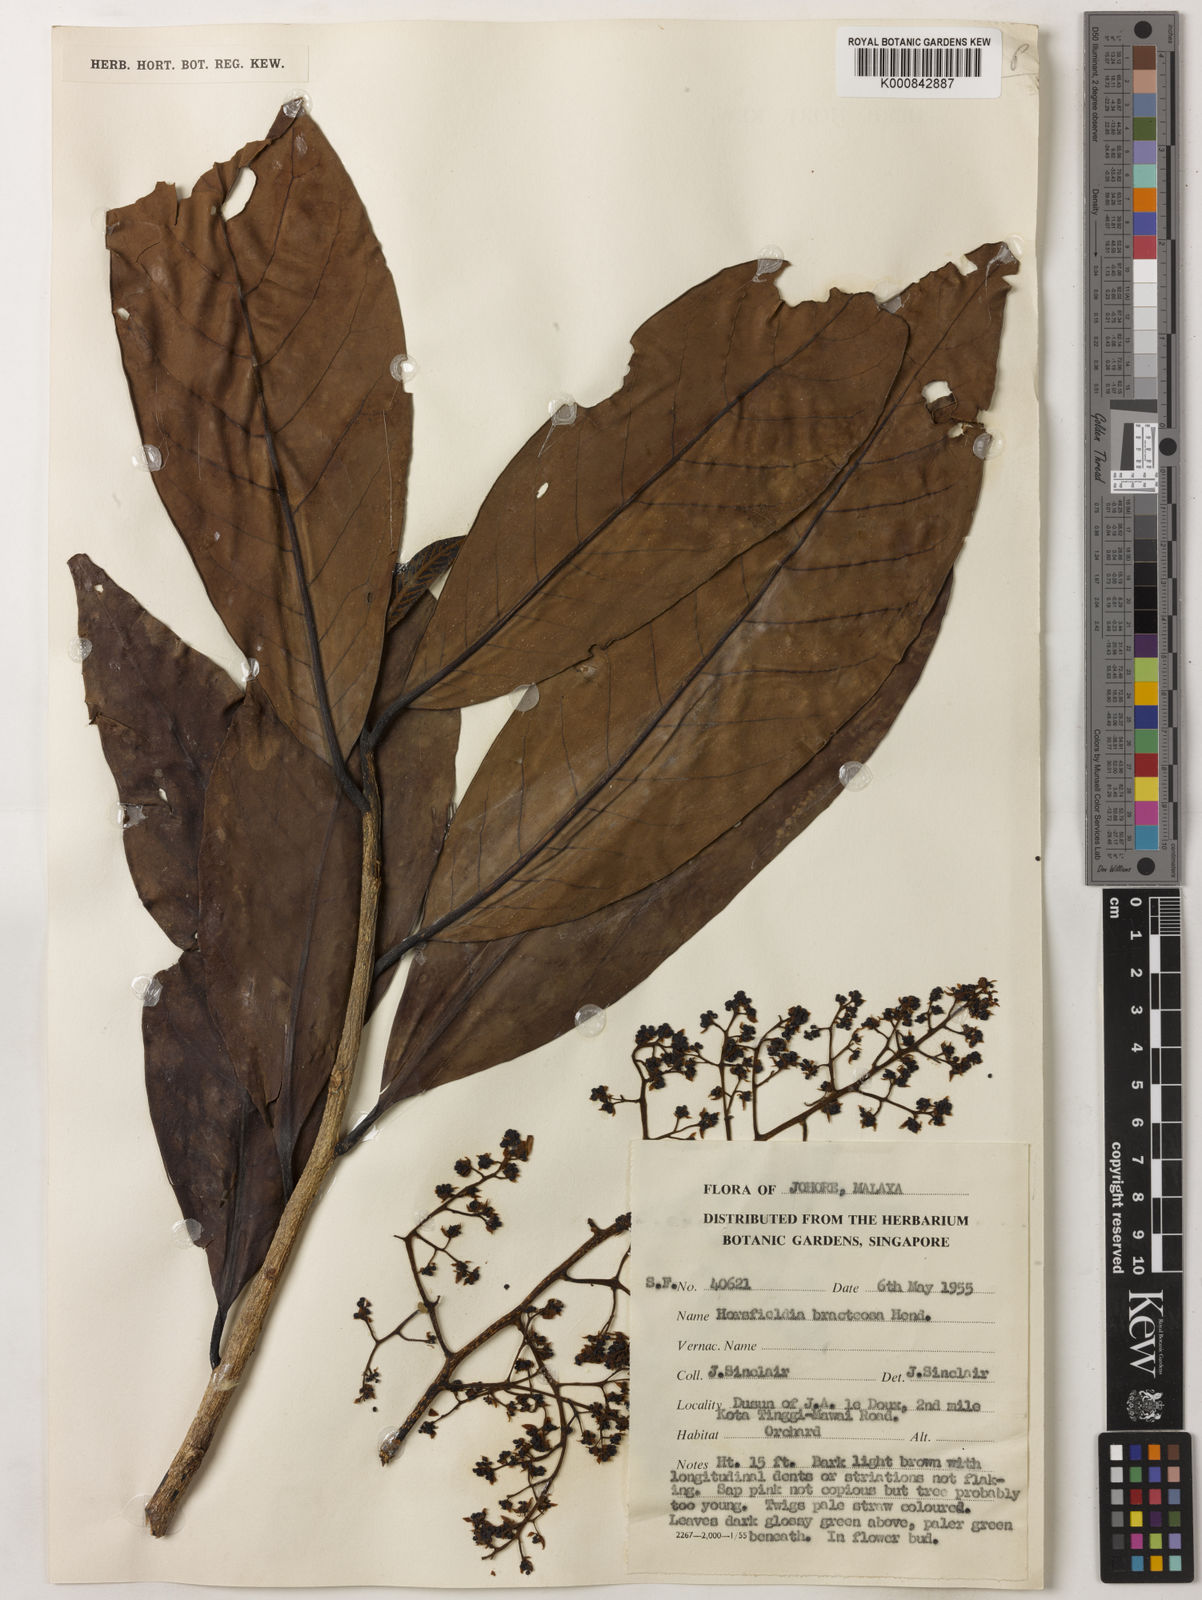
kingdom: Plantae
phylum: Tracheophyta
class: Magnoliopsida
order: Magnoliales
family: Myristicaceae
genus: Horsfieldia
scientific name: Horsfieldia sucosa
